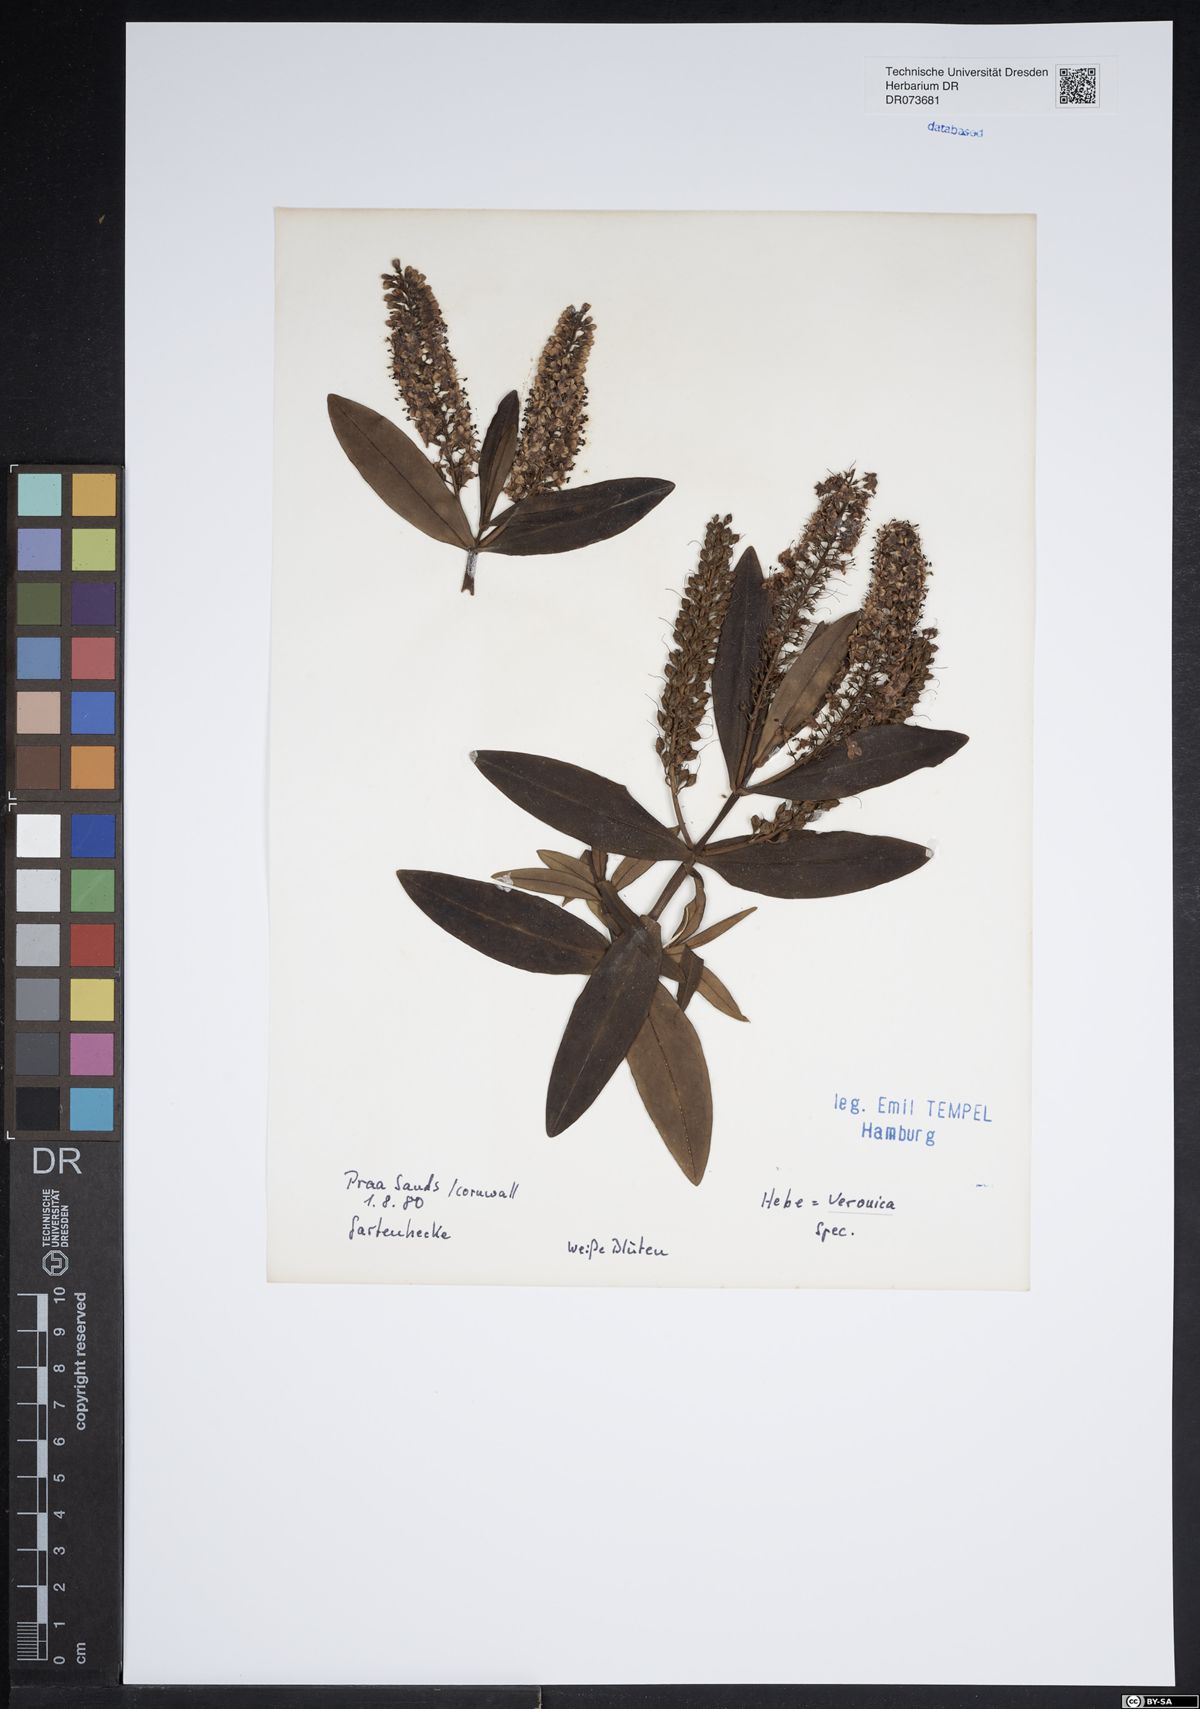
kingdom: Plantae
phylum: Tracheophyta
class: Magnoliopsida
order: Lamiales
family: Plantaginaceae
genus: Veronica
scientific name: Veronica
